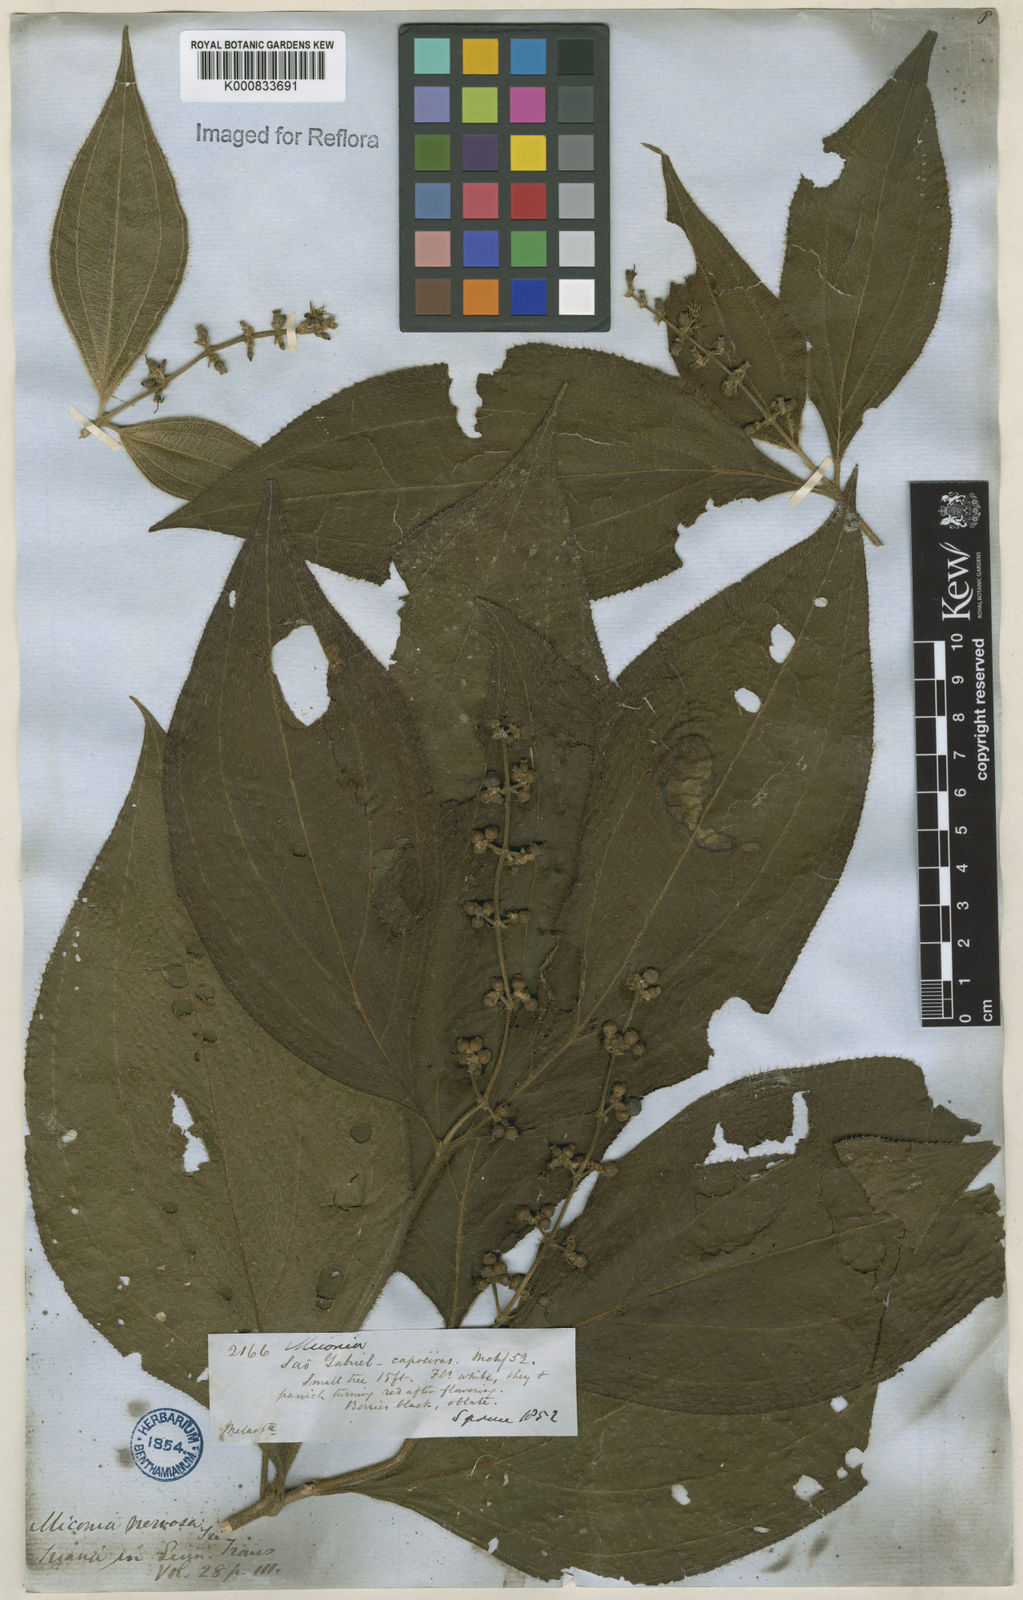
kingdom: Plantae
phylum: Tracheophyta
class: Magnoliopsida
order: Myrtales
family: Melastomataceae
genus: Miconia
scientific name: Miconia nervosa
